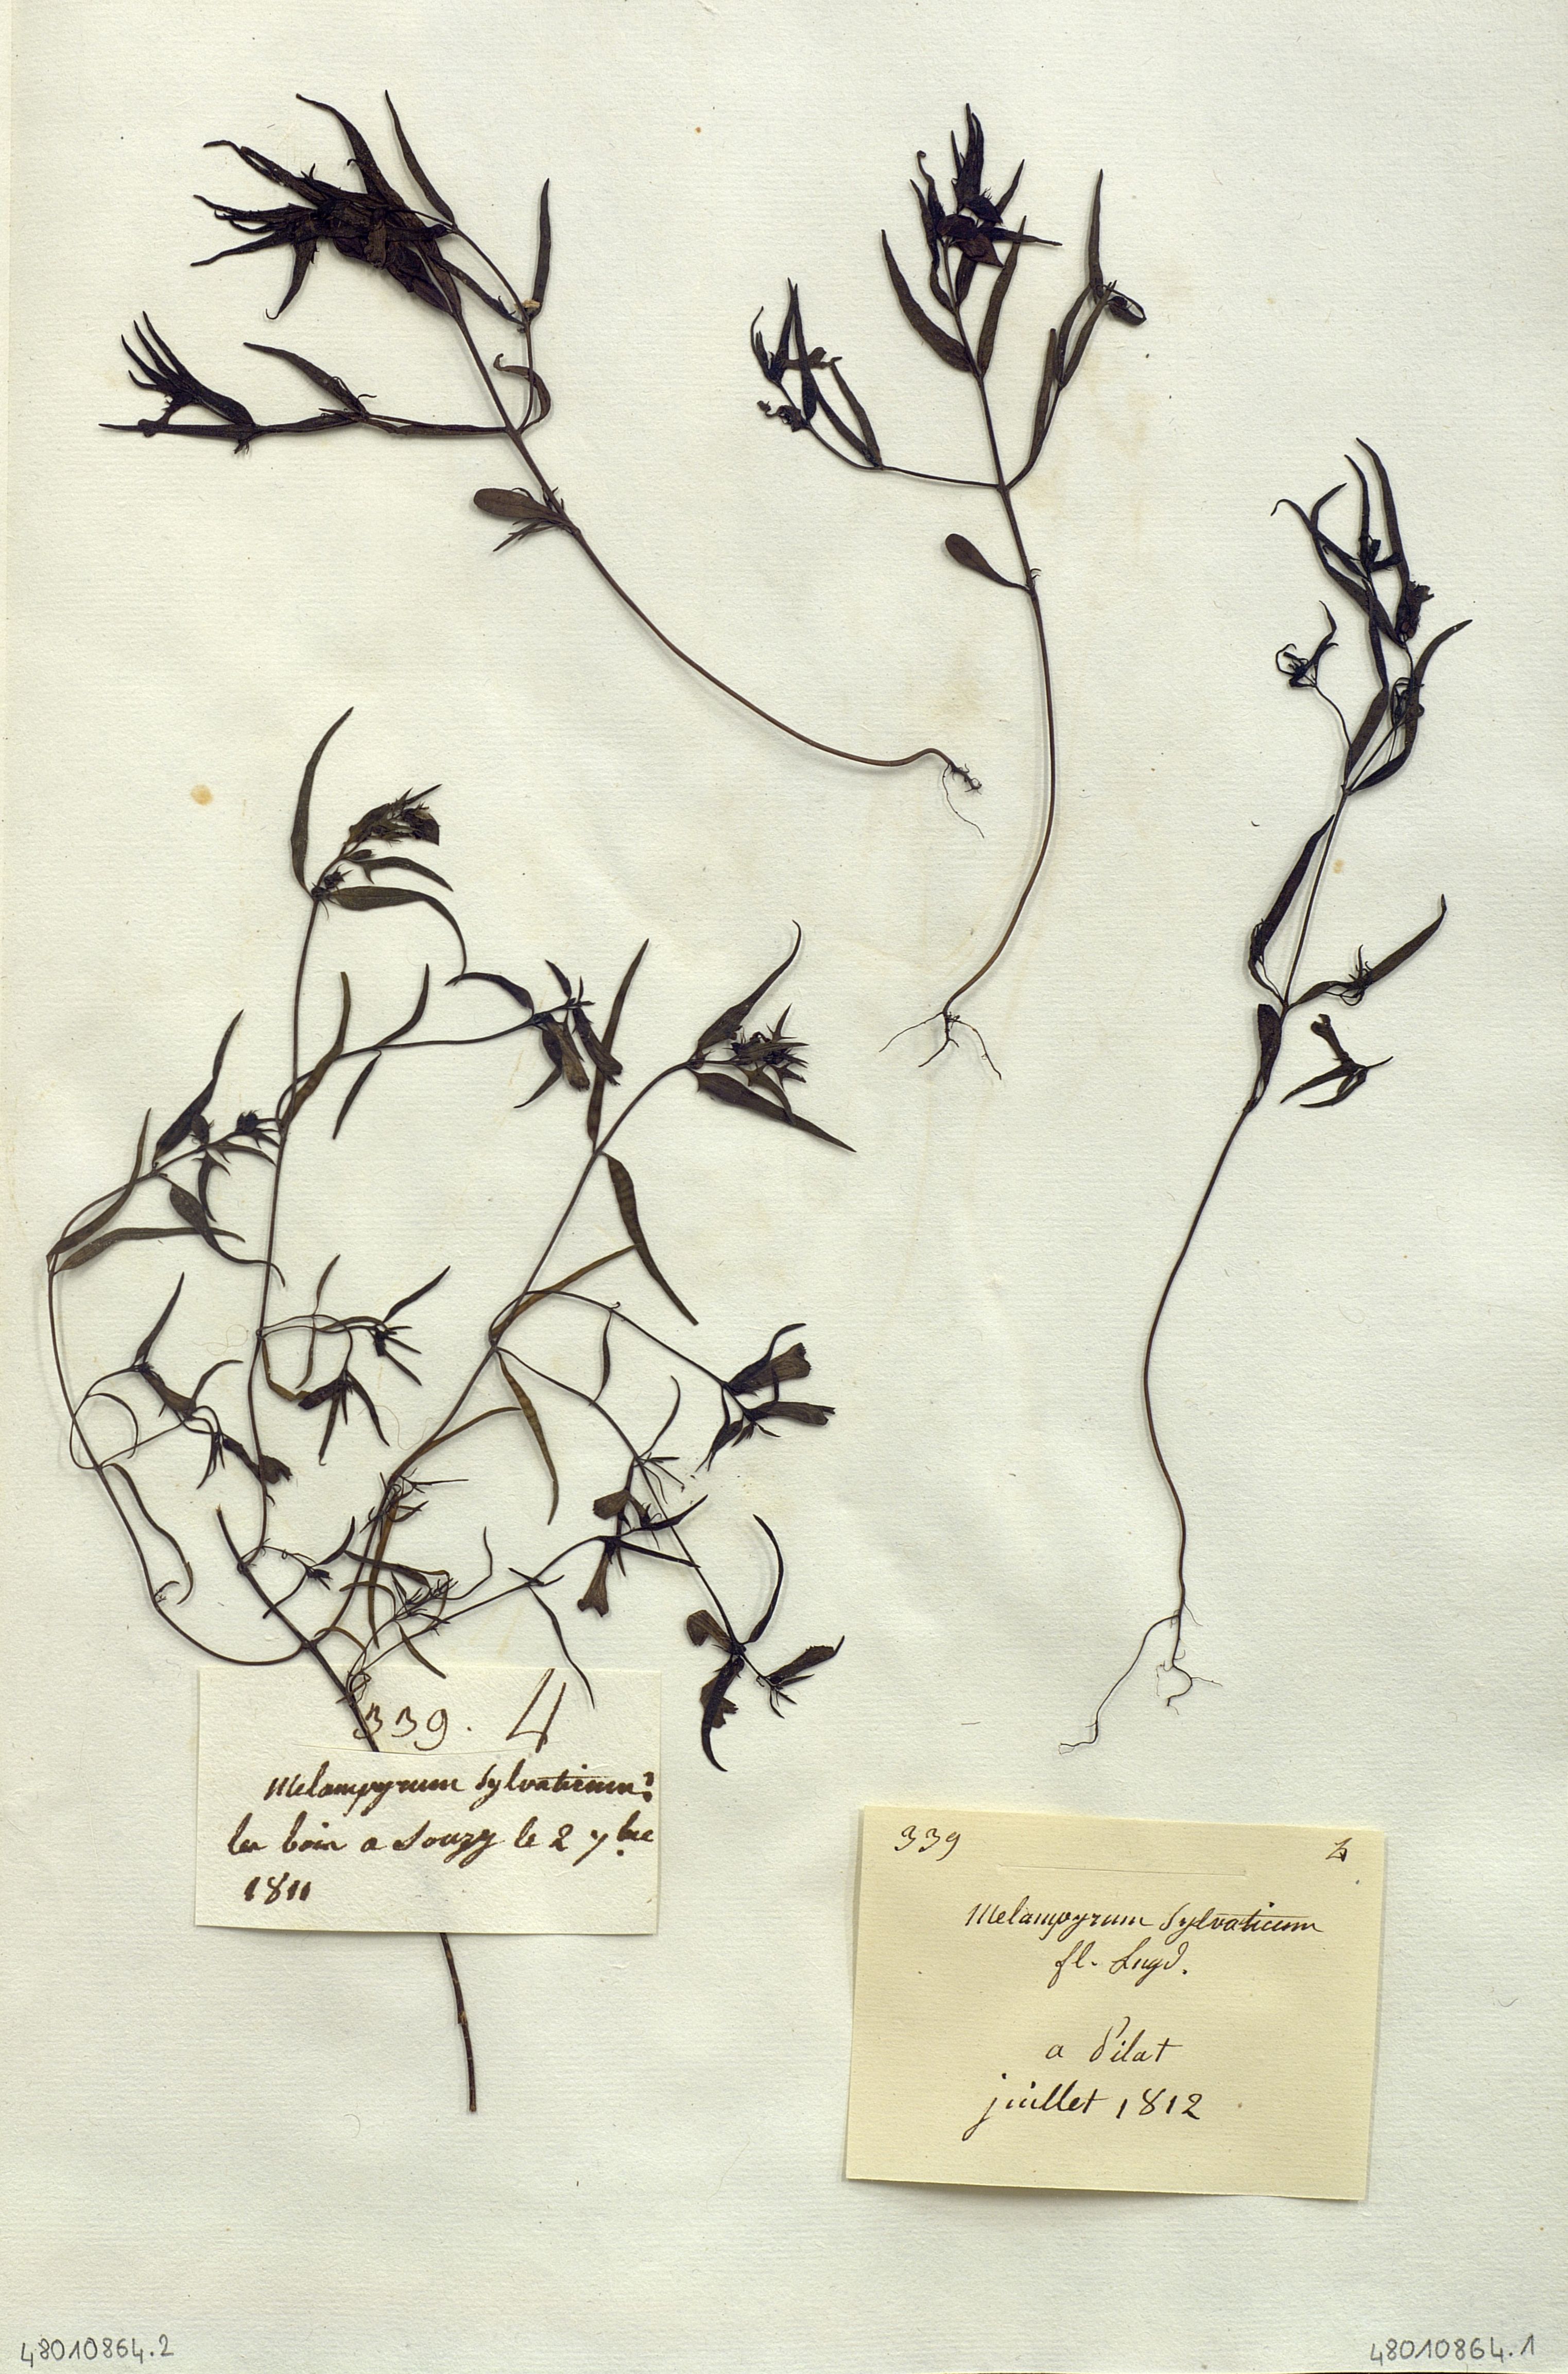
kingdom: Plantae
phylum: Tracheophyta
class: Magnoliopsida
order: Lamiales
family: Orobanchaceae
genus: Melampyrum
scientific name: Melampyrum sylvaticum
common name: Small cow-wheat
